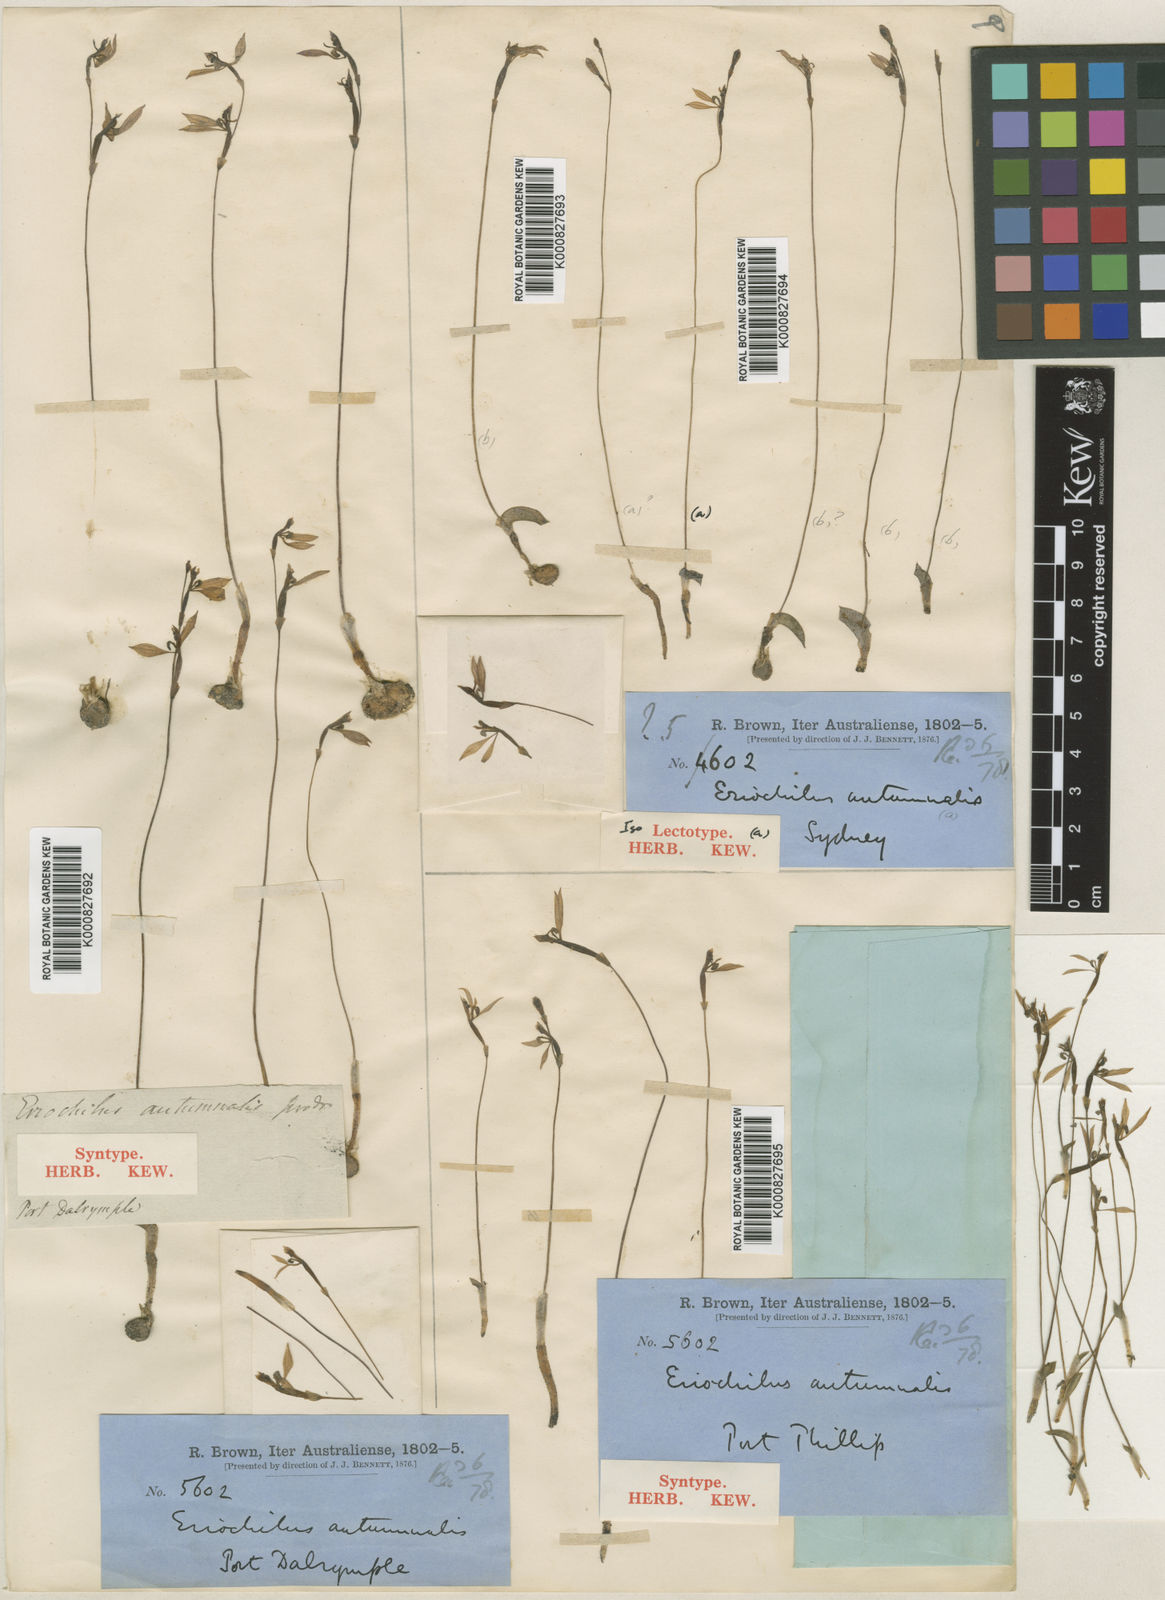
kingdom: Plantae
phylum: Tracheophyta
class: Liliopsida
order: Asparagales
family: Orchidaceae
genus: Eriochilus
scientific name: Eriochilus cucullatus
